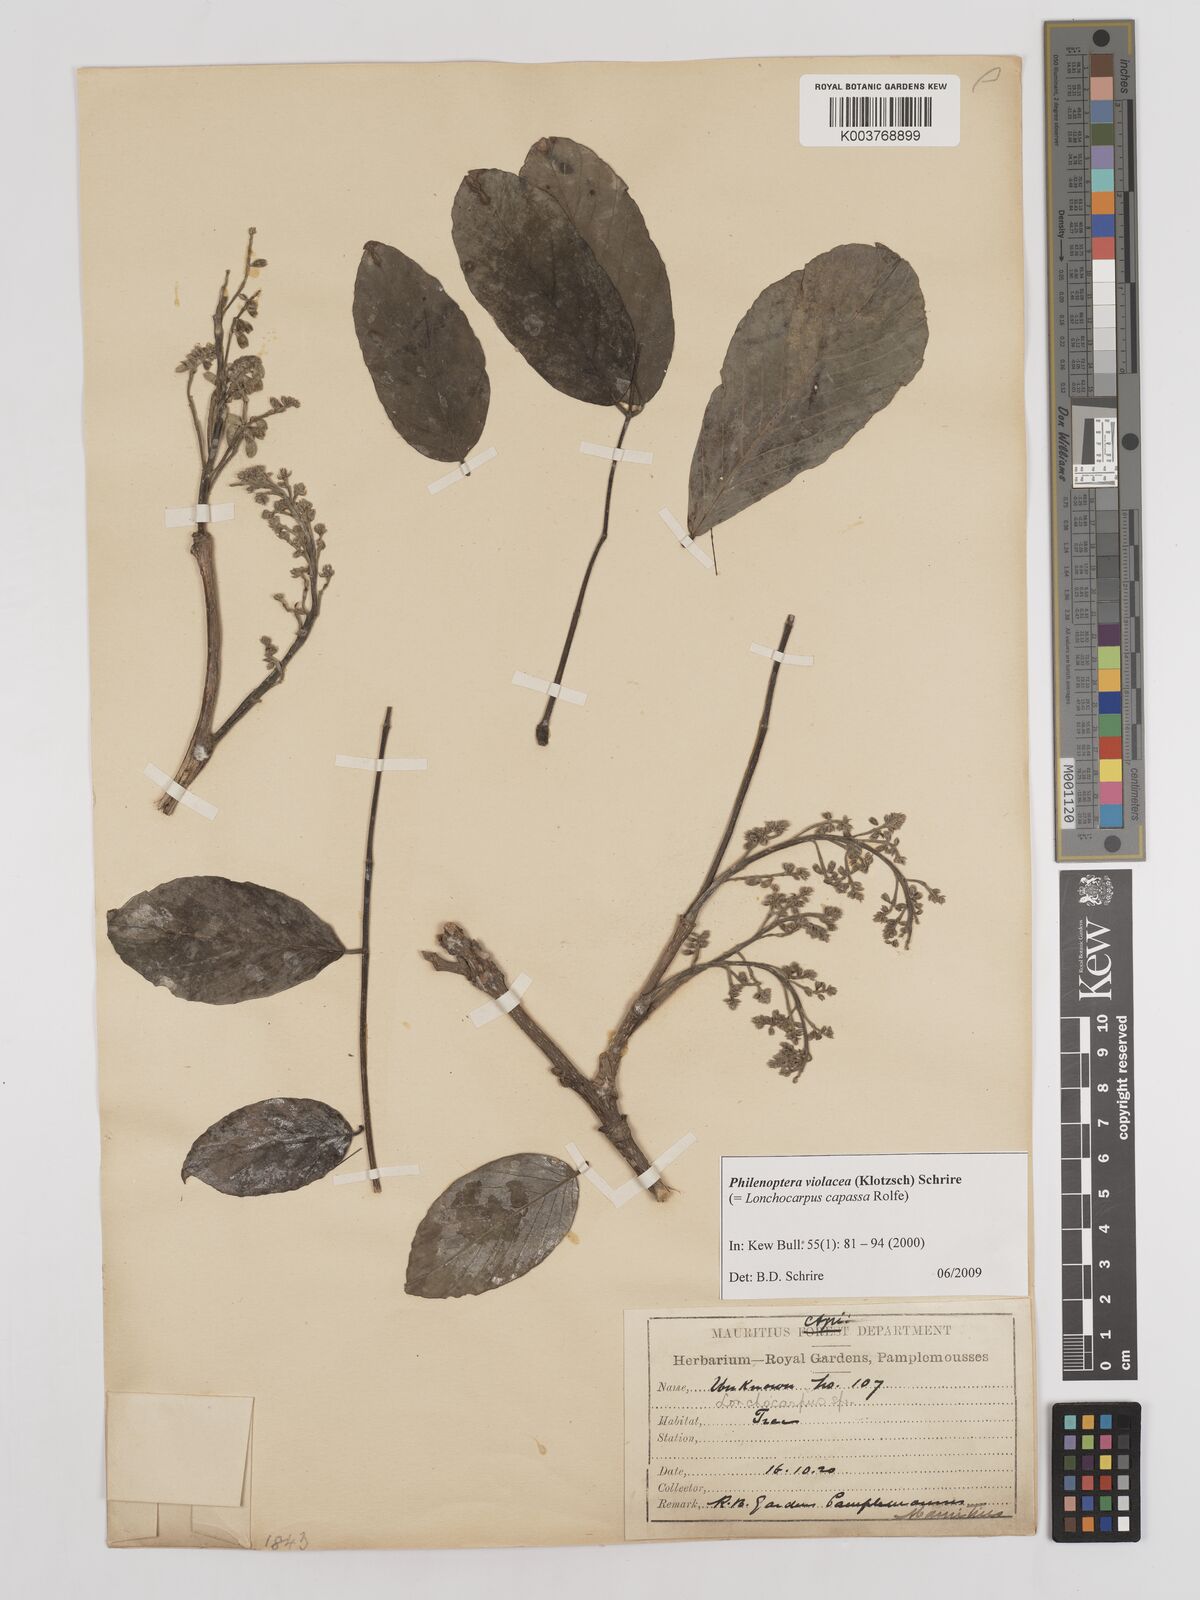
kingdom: Plantae
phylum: Tracheophyta
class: Magnoliopsida
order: Fabales
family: Fabaceae
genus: Philenoptera
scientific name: Philenoptera violacea
